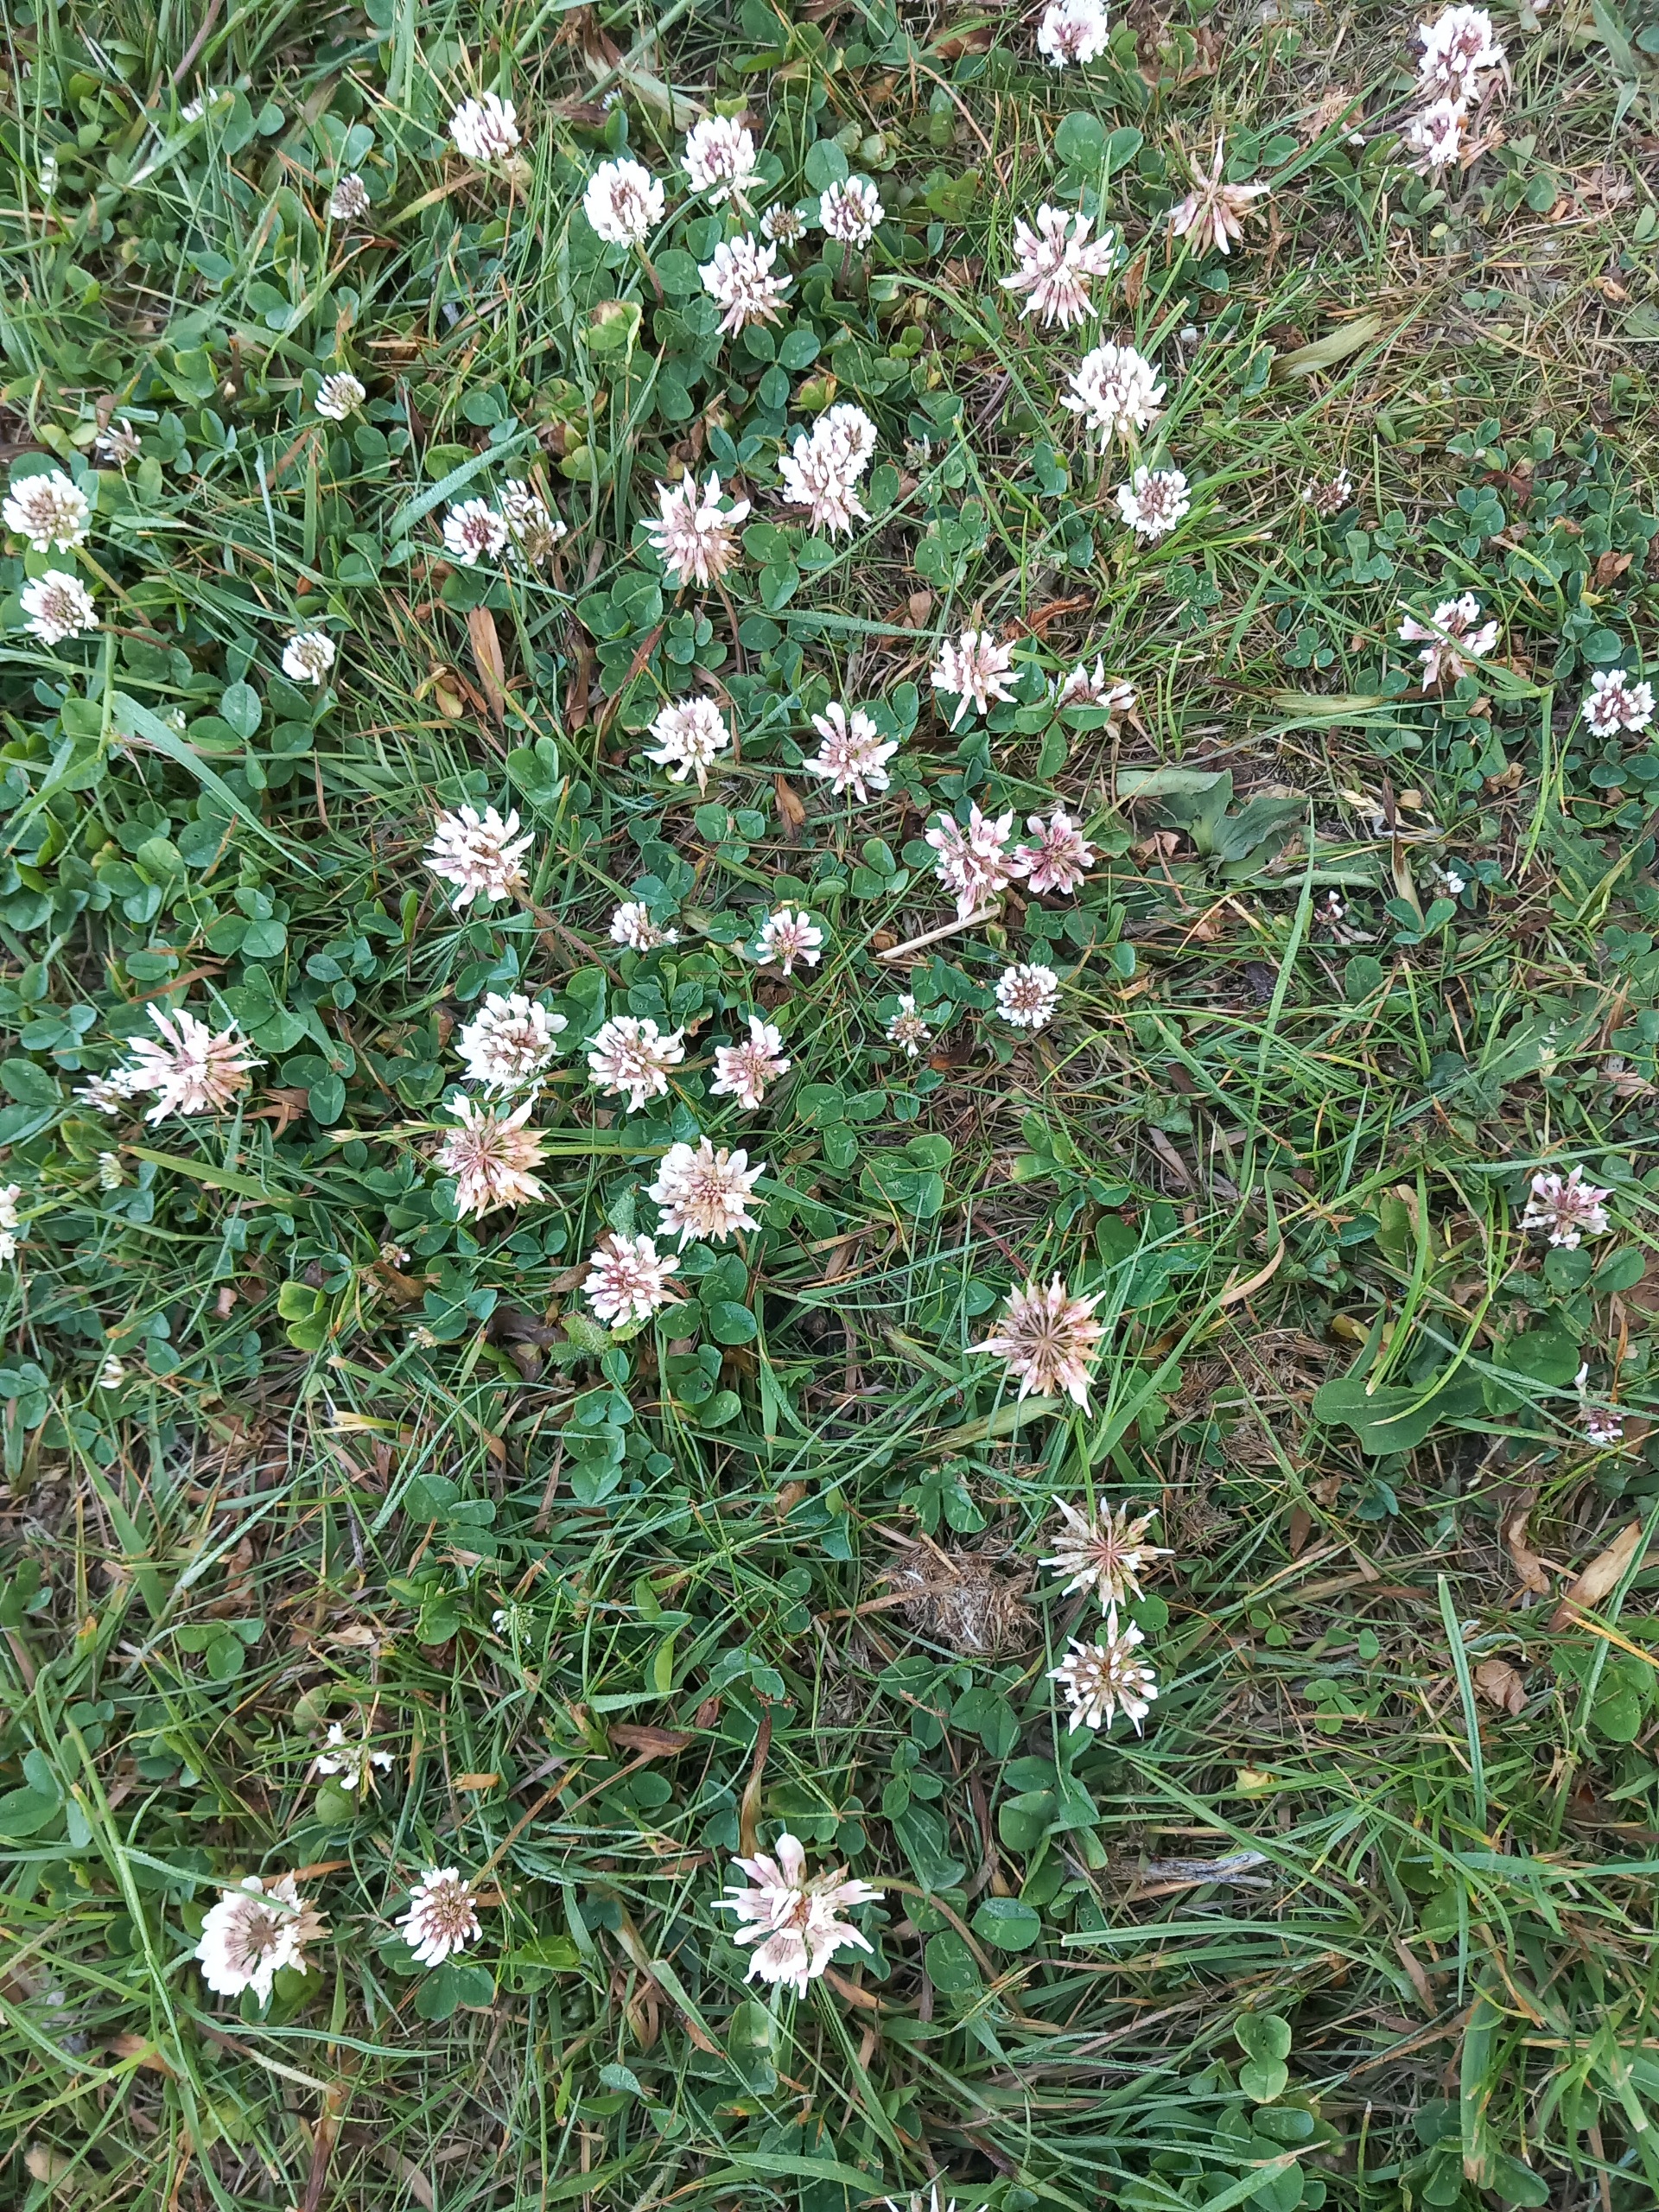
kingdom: Plantae
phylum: Tracheophyta
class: Magnoliopsida
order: Fabales
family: Fabaceae
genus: Trifolium
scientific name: Trifolium repens
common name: Hvid-kløver
